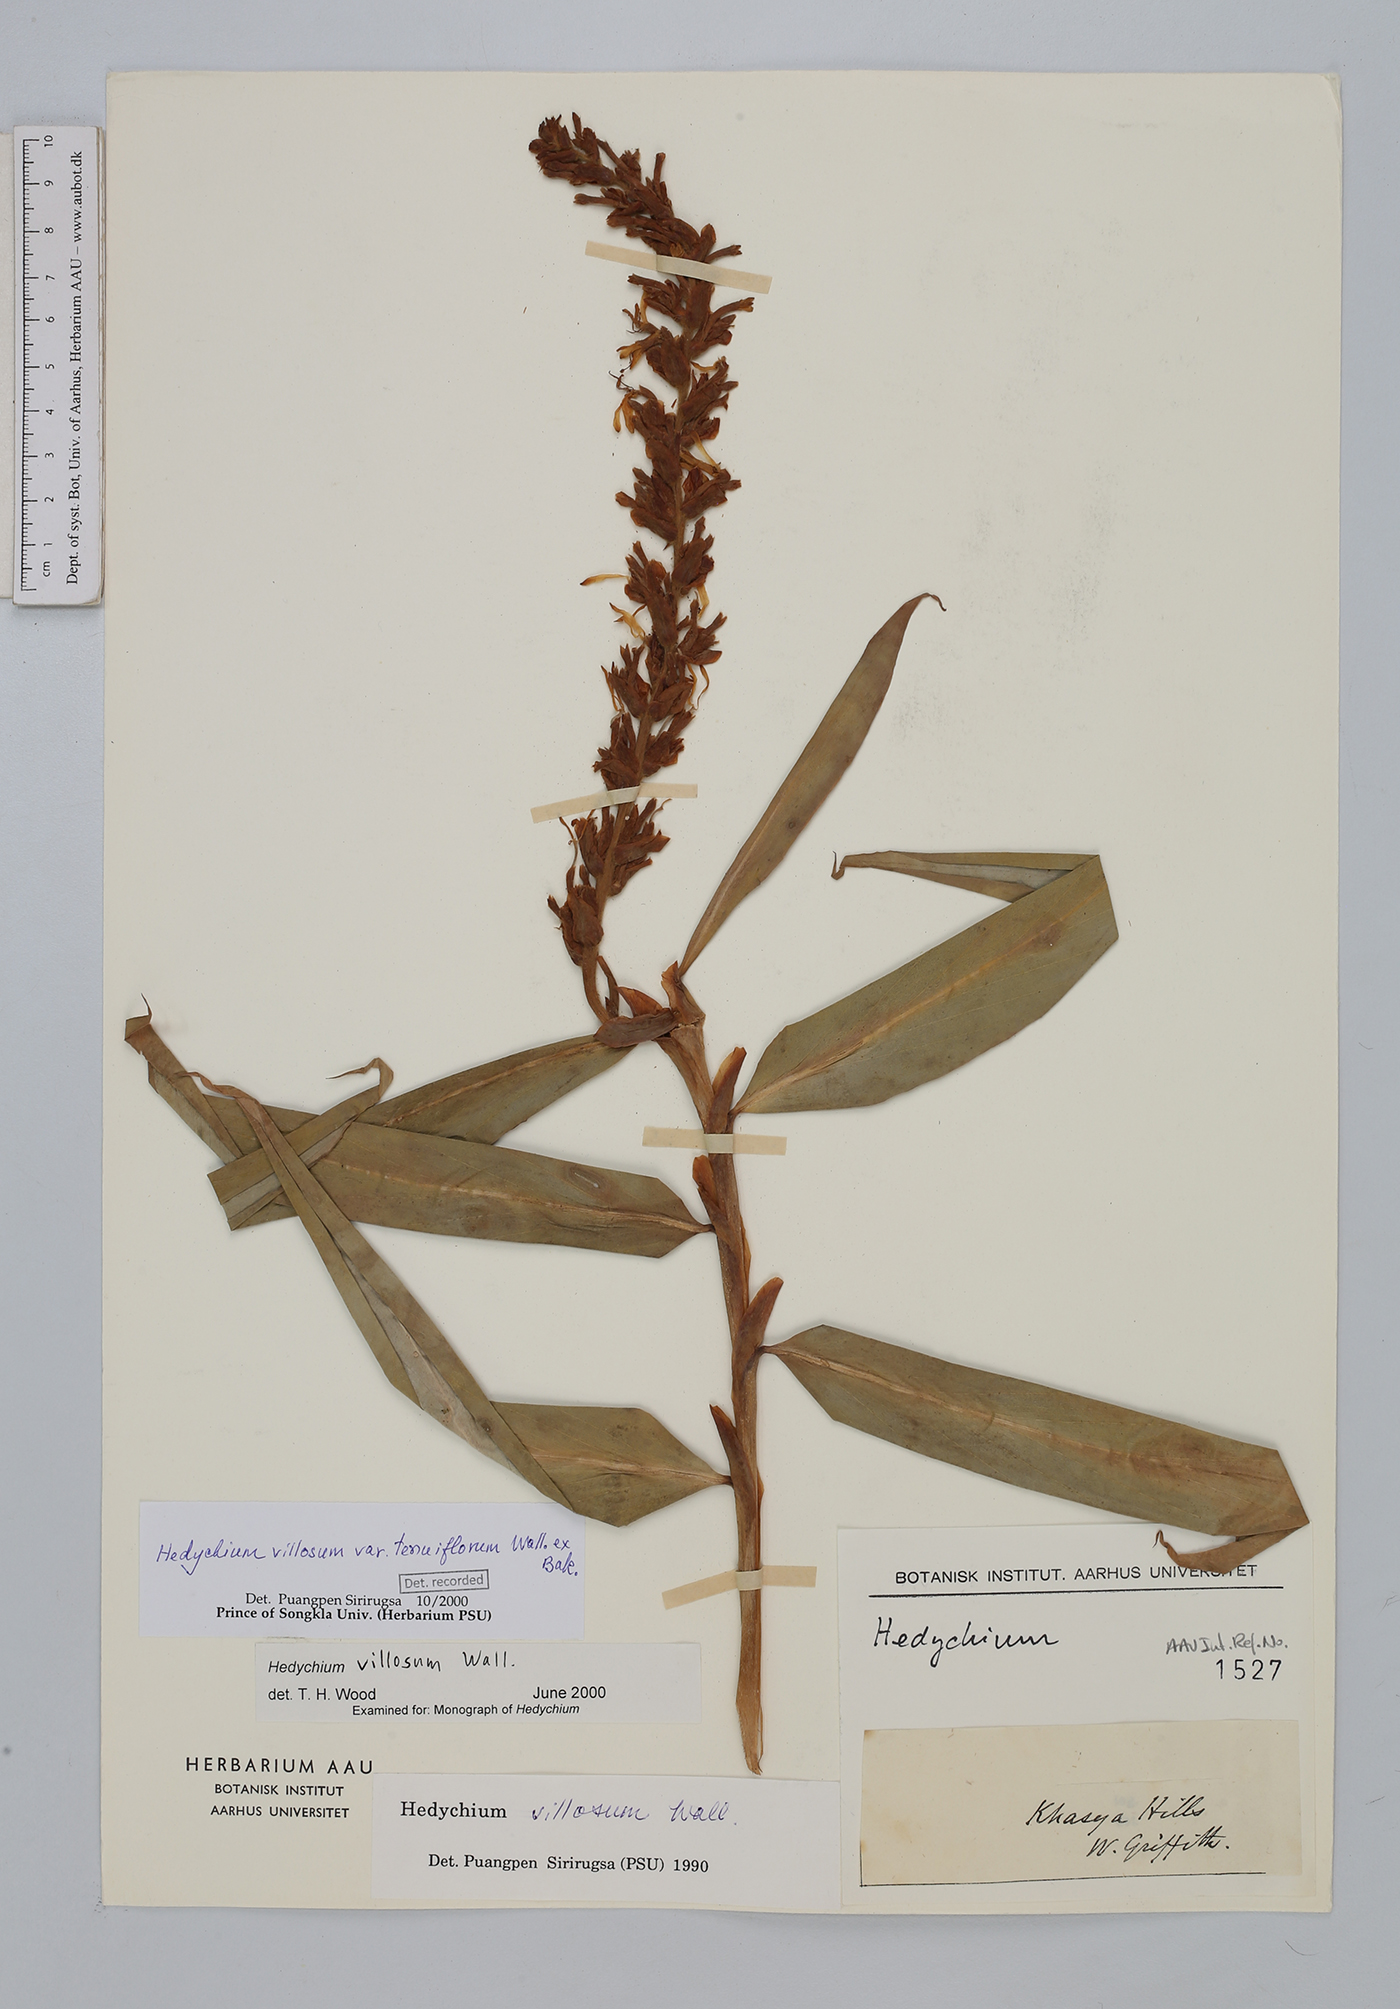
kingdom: Plantae
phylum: Tracheophyta
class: Liliopsida
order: Zingiberales
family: Zingiberaceae
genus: Hedychium
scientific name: Hedychium villosum
